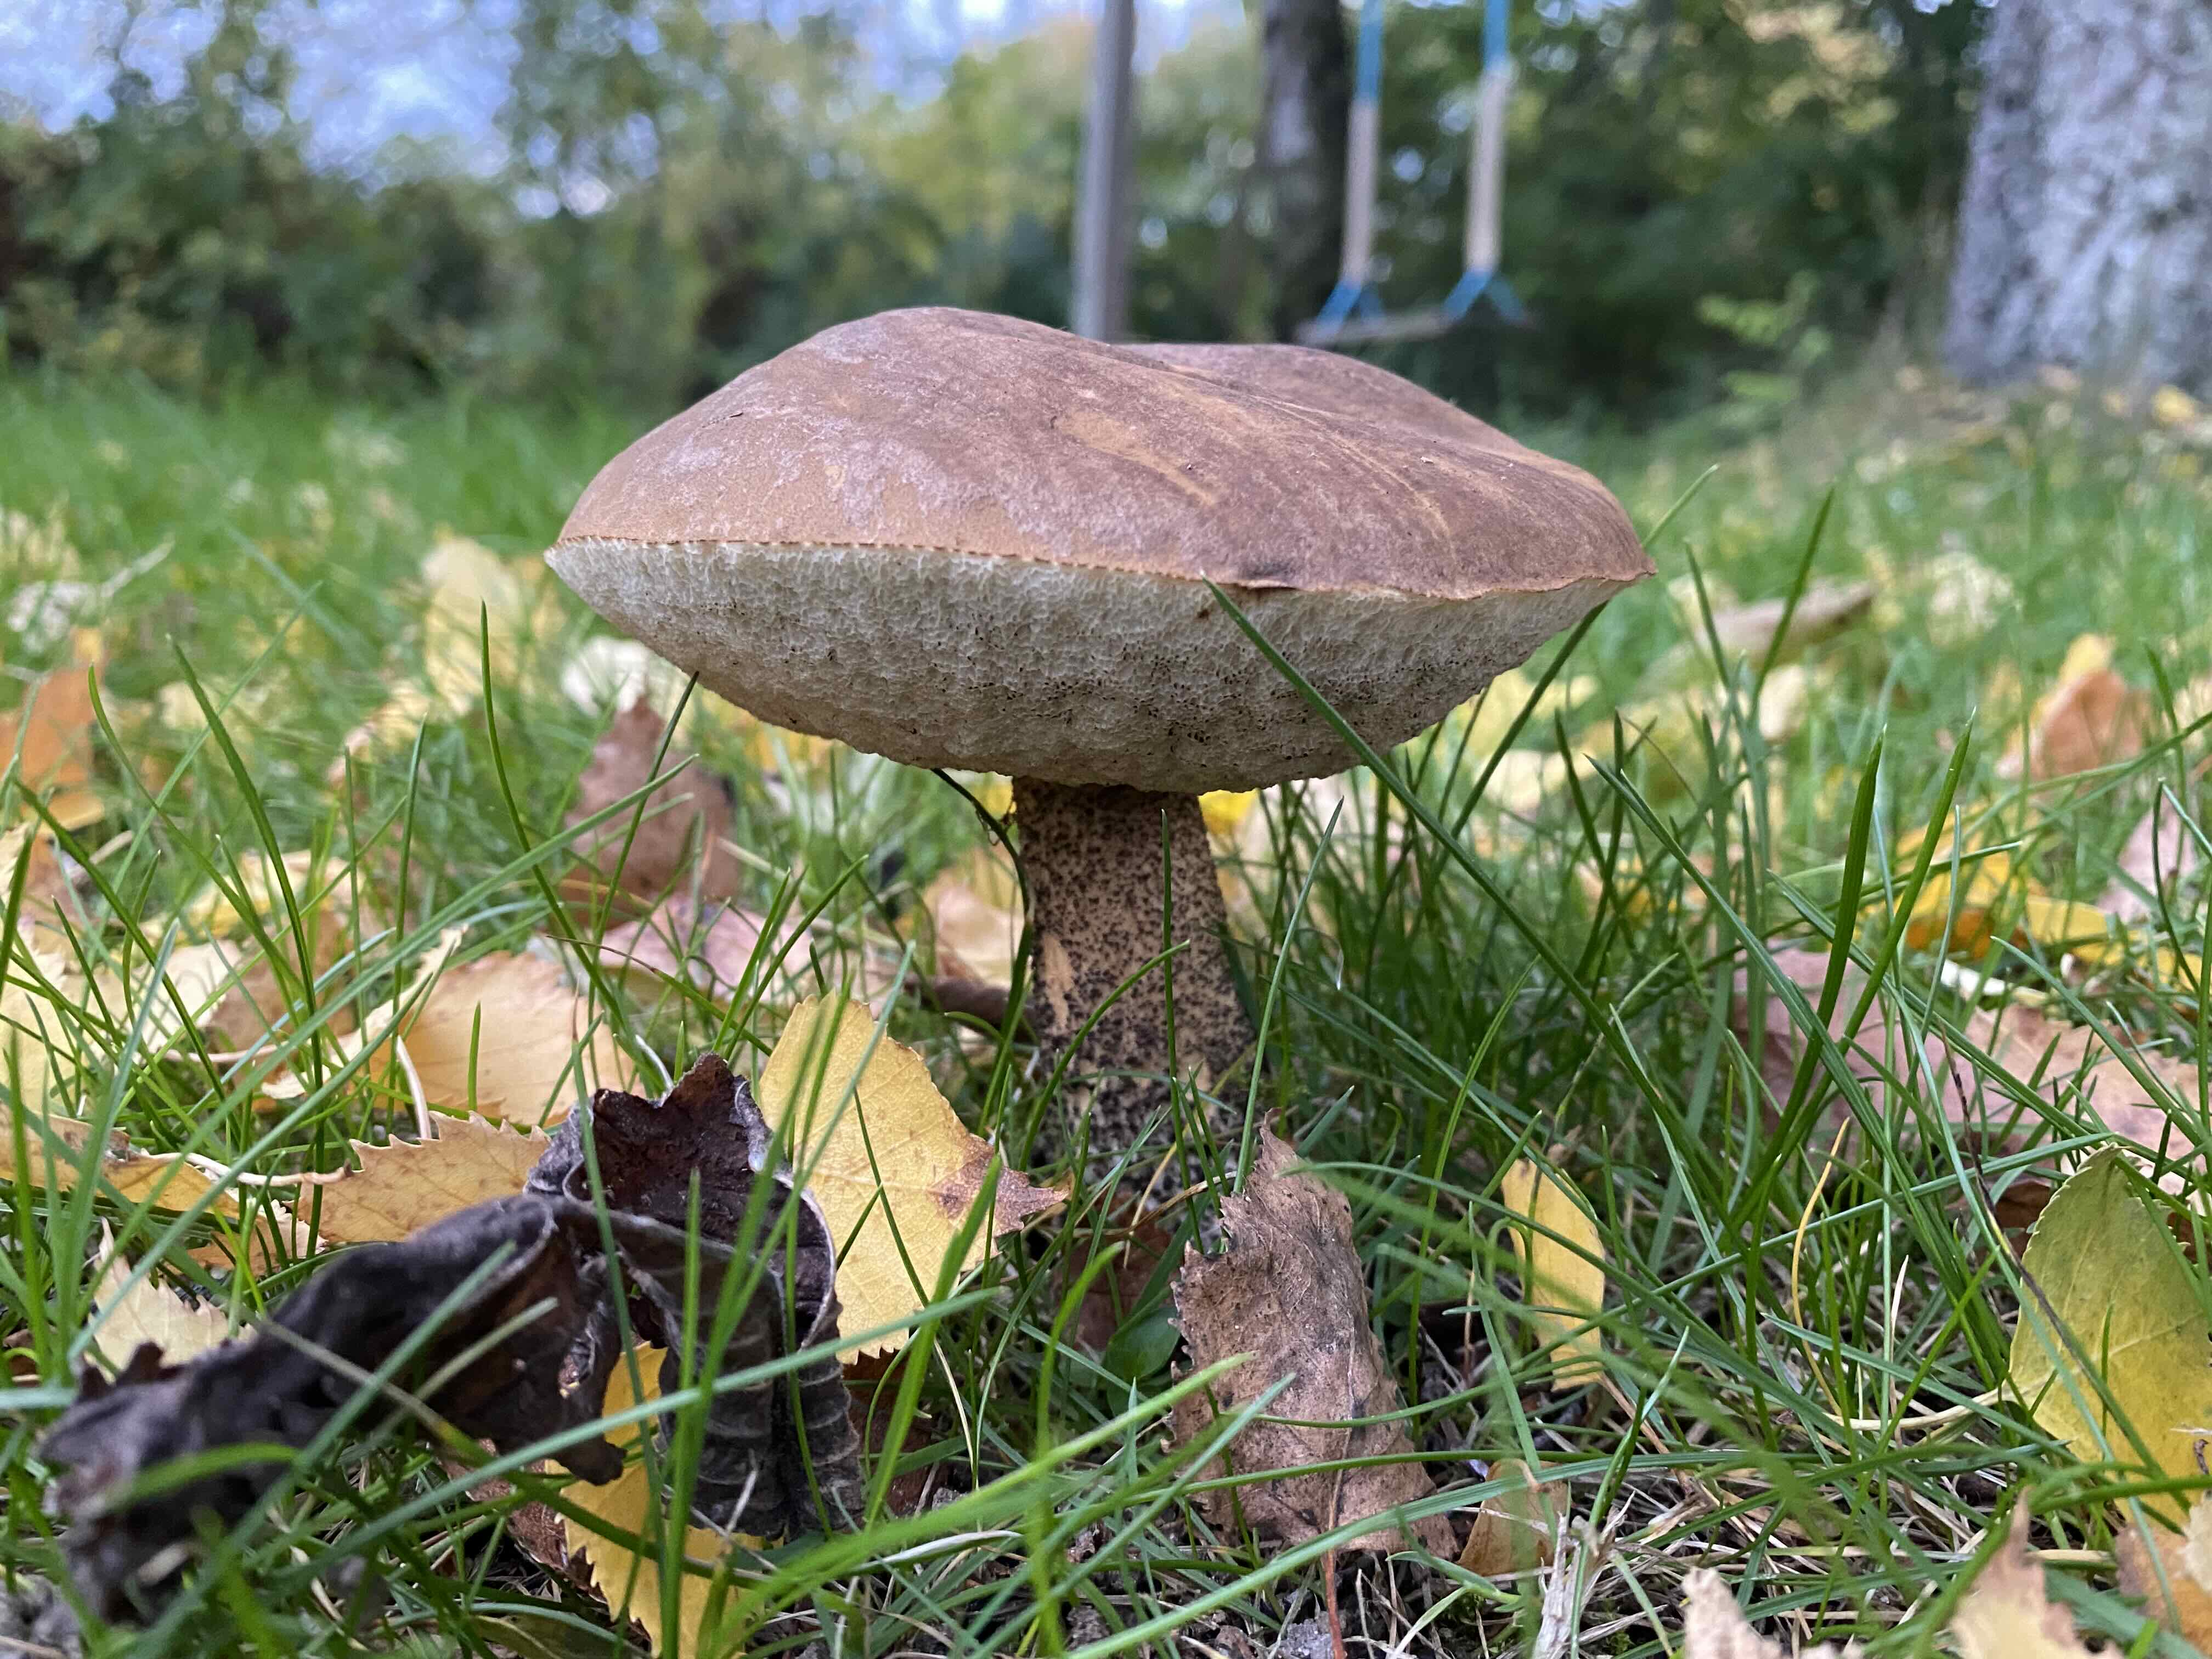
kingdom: Fungi
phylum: Basidiomycota
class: Agaricomycetes
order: Boletales
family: Boletaceae
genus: Leccinum
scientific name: Leccinum scabrum
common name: brun skælrørhat
